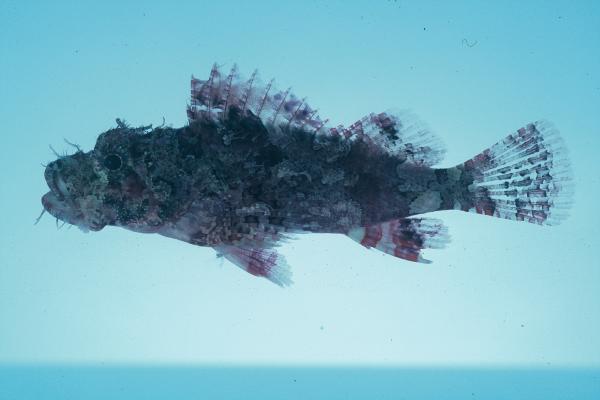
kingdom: Animalia
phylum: Chordata
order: Scorpaeniformes
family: Scorpaenidae
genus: Scorpaenopsis
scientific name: Scorpaenopsis longispina
